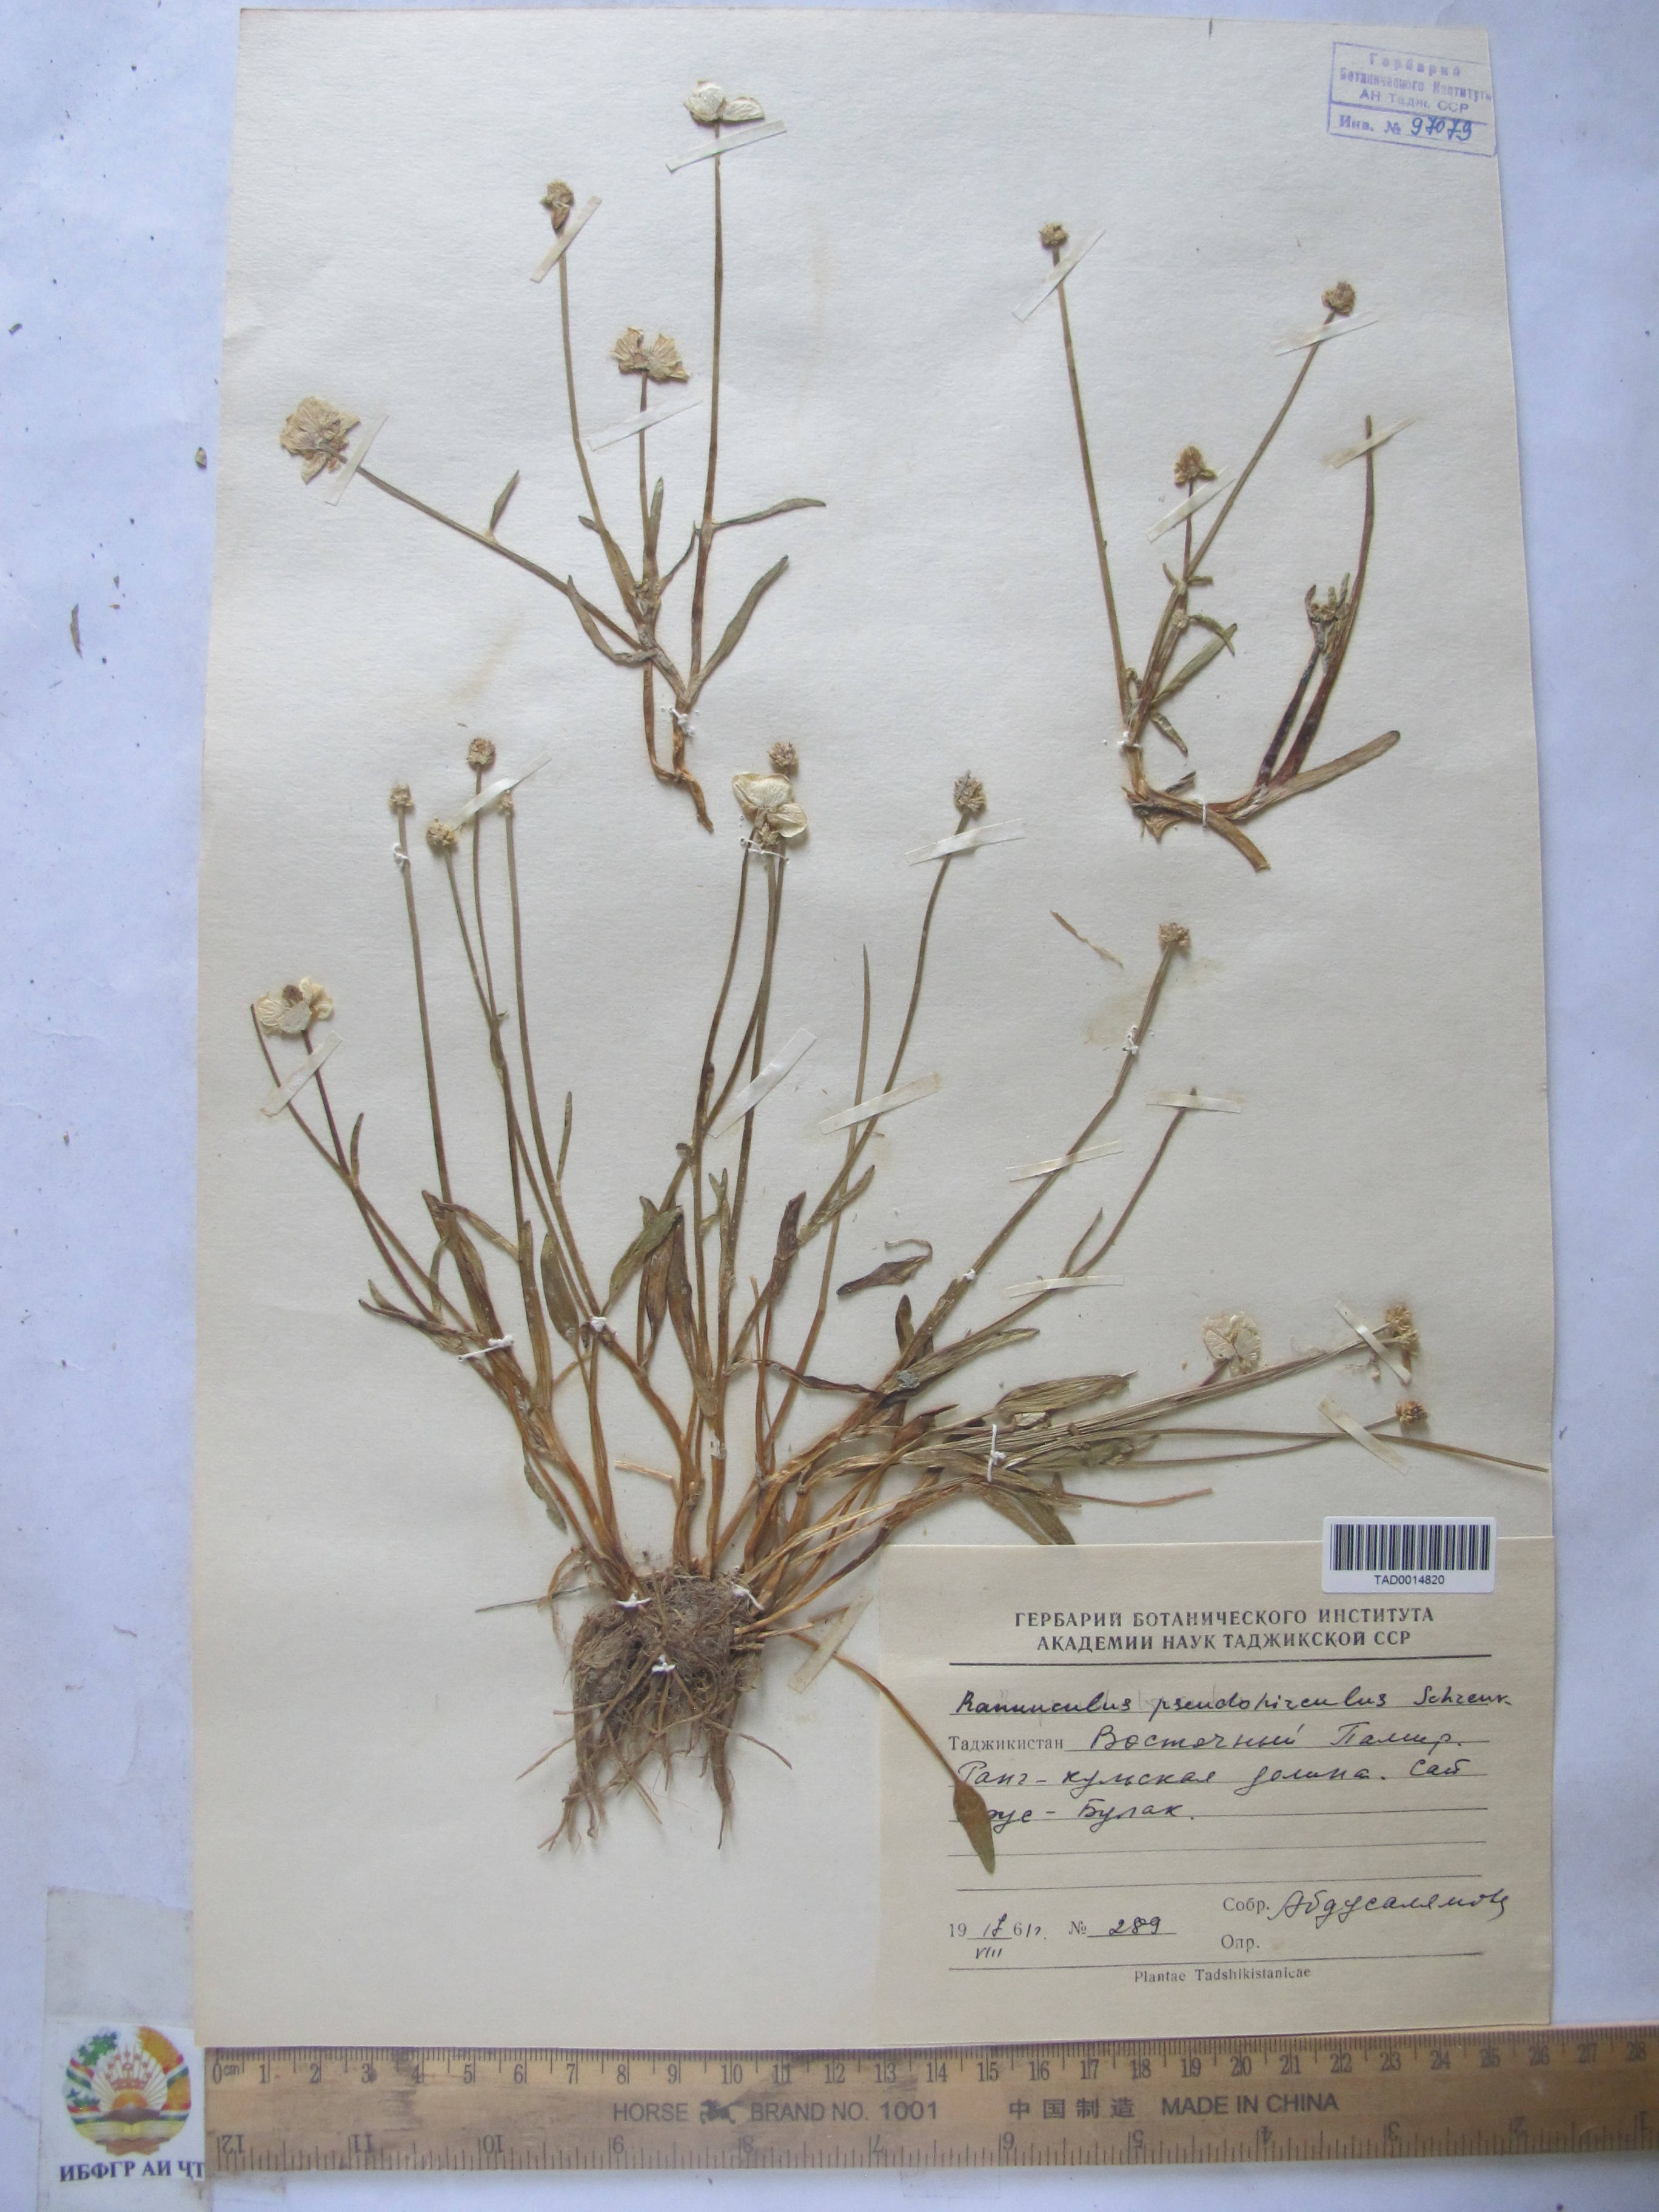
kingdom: Plantae
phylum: Tracheophyta
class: Magnoliopsida
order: Ranunculales
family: Ranunculaceae
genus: Ranunculus
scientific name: Ranunculus pseudohirculus
